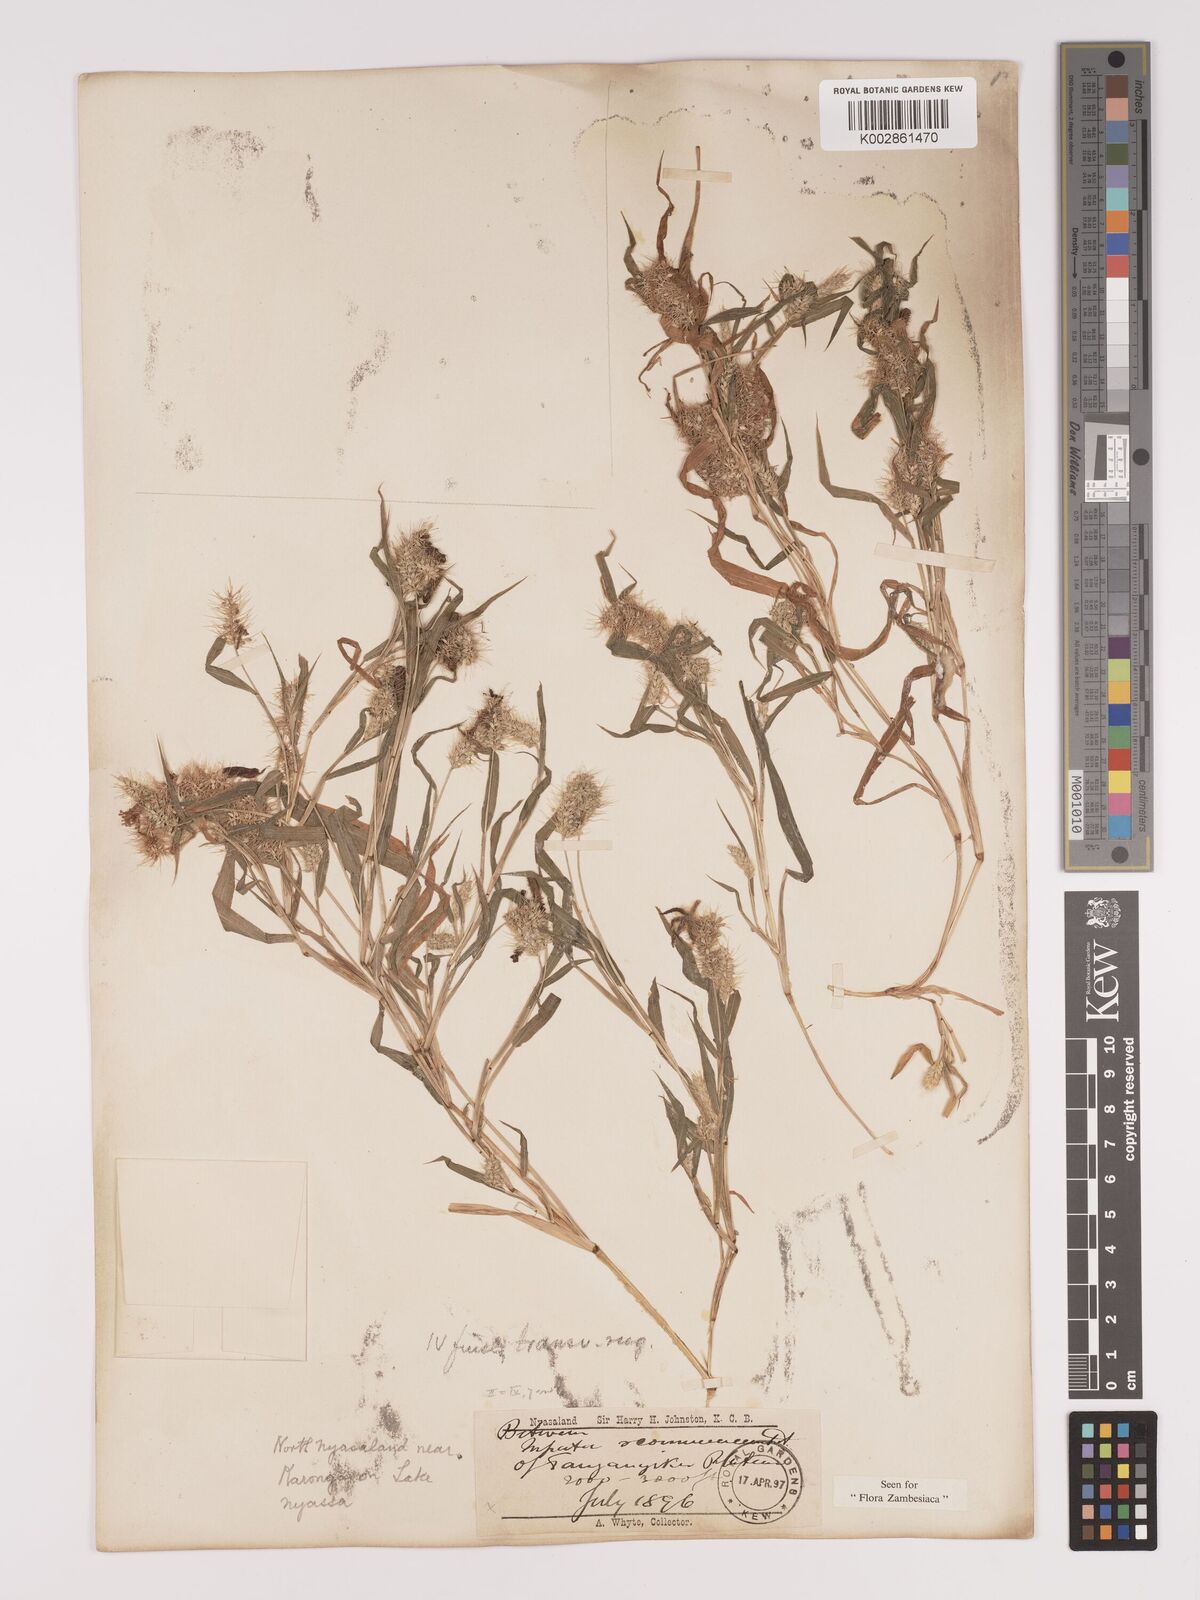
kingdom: Plantae
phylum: Tracheophyta
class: Liliopsida
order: Poales
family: Poaceae
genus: Setaria
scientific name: Setaria verticillata
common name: Hooked bristlegrass
